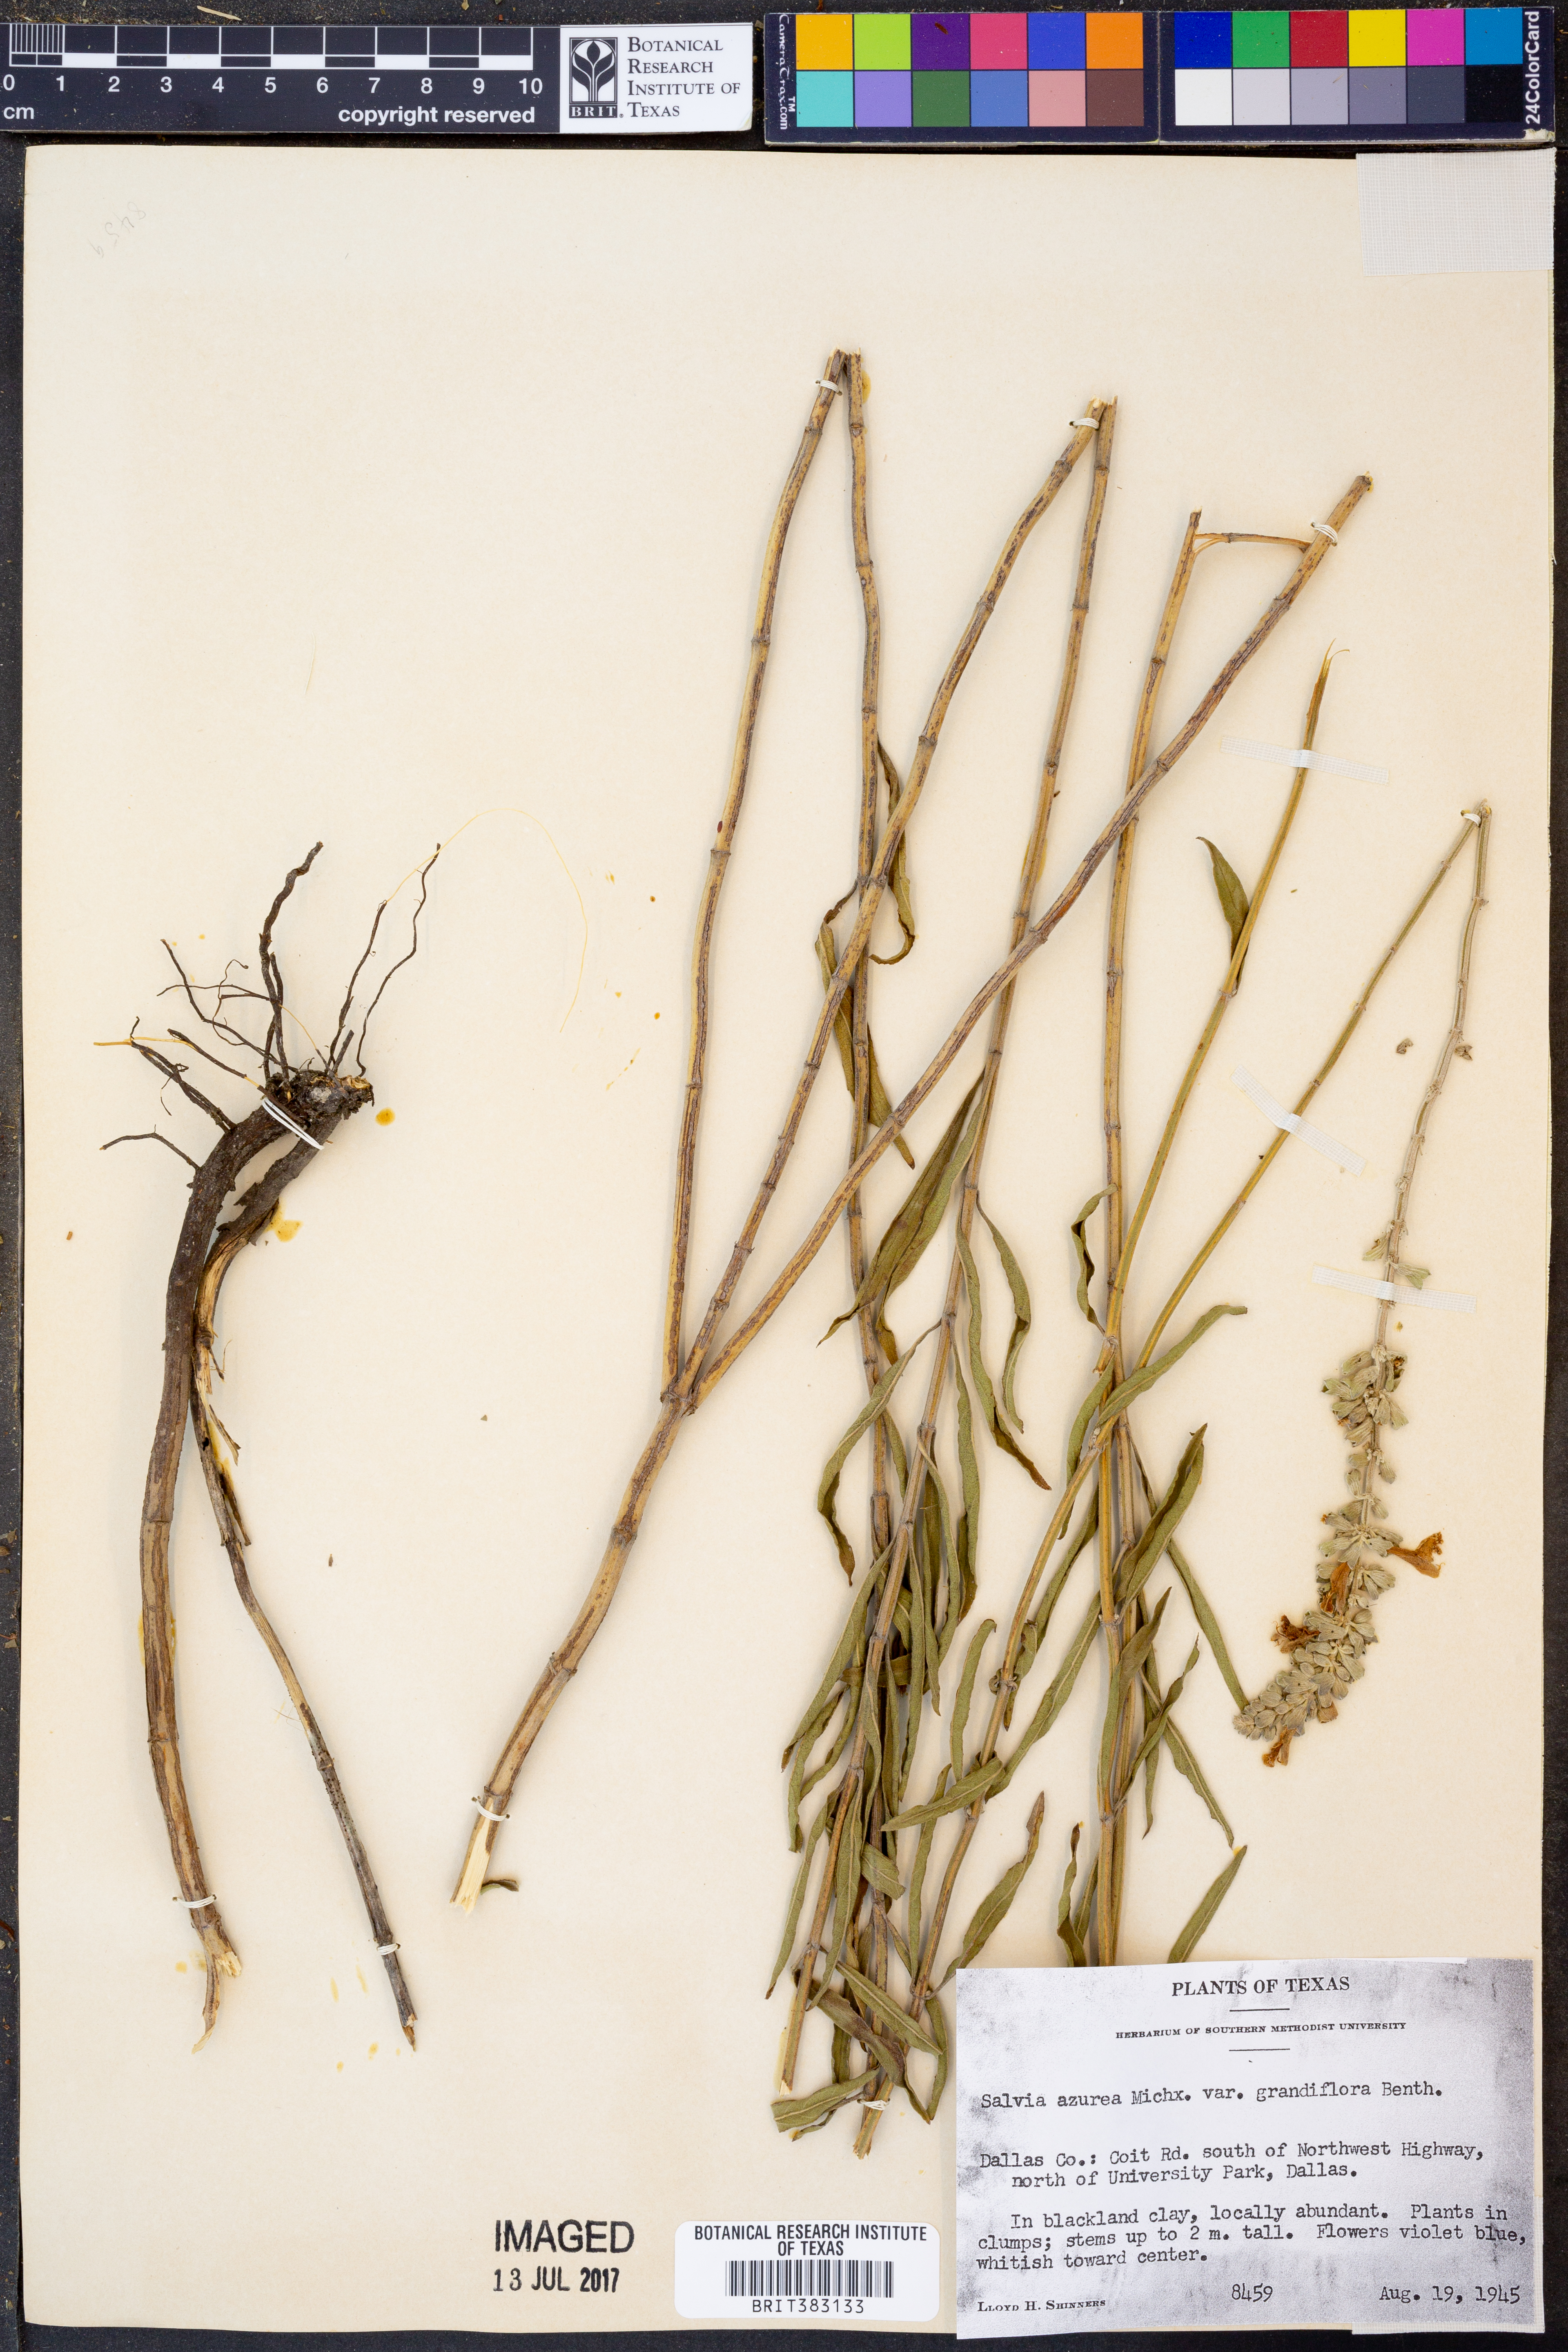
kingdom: Plantae
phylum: Tracheophyta
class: Magnoliopsida
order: Lamiales
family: Lamiaceae
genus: Salvia
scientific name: Salvia azurea
